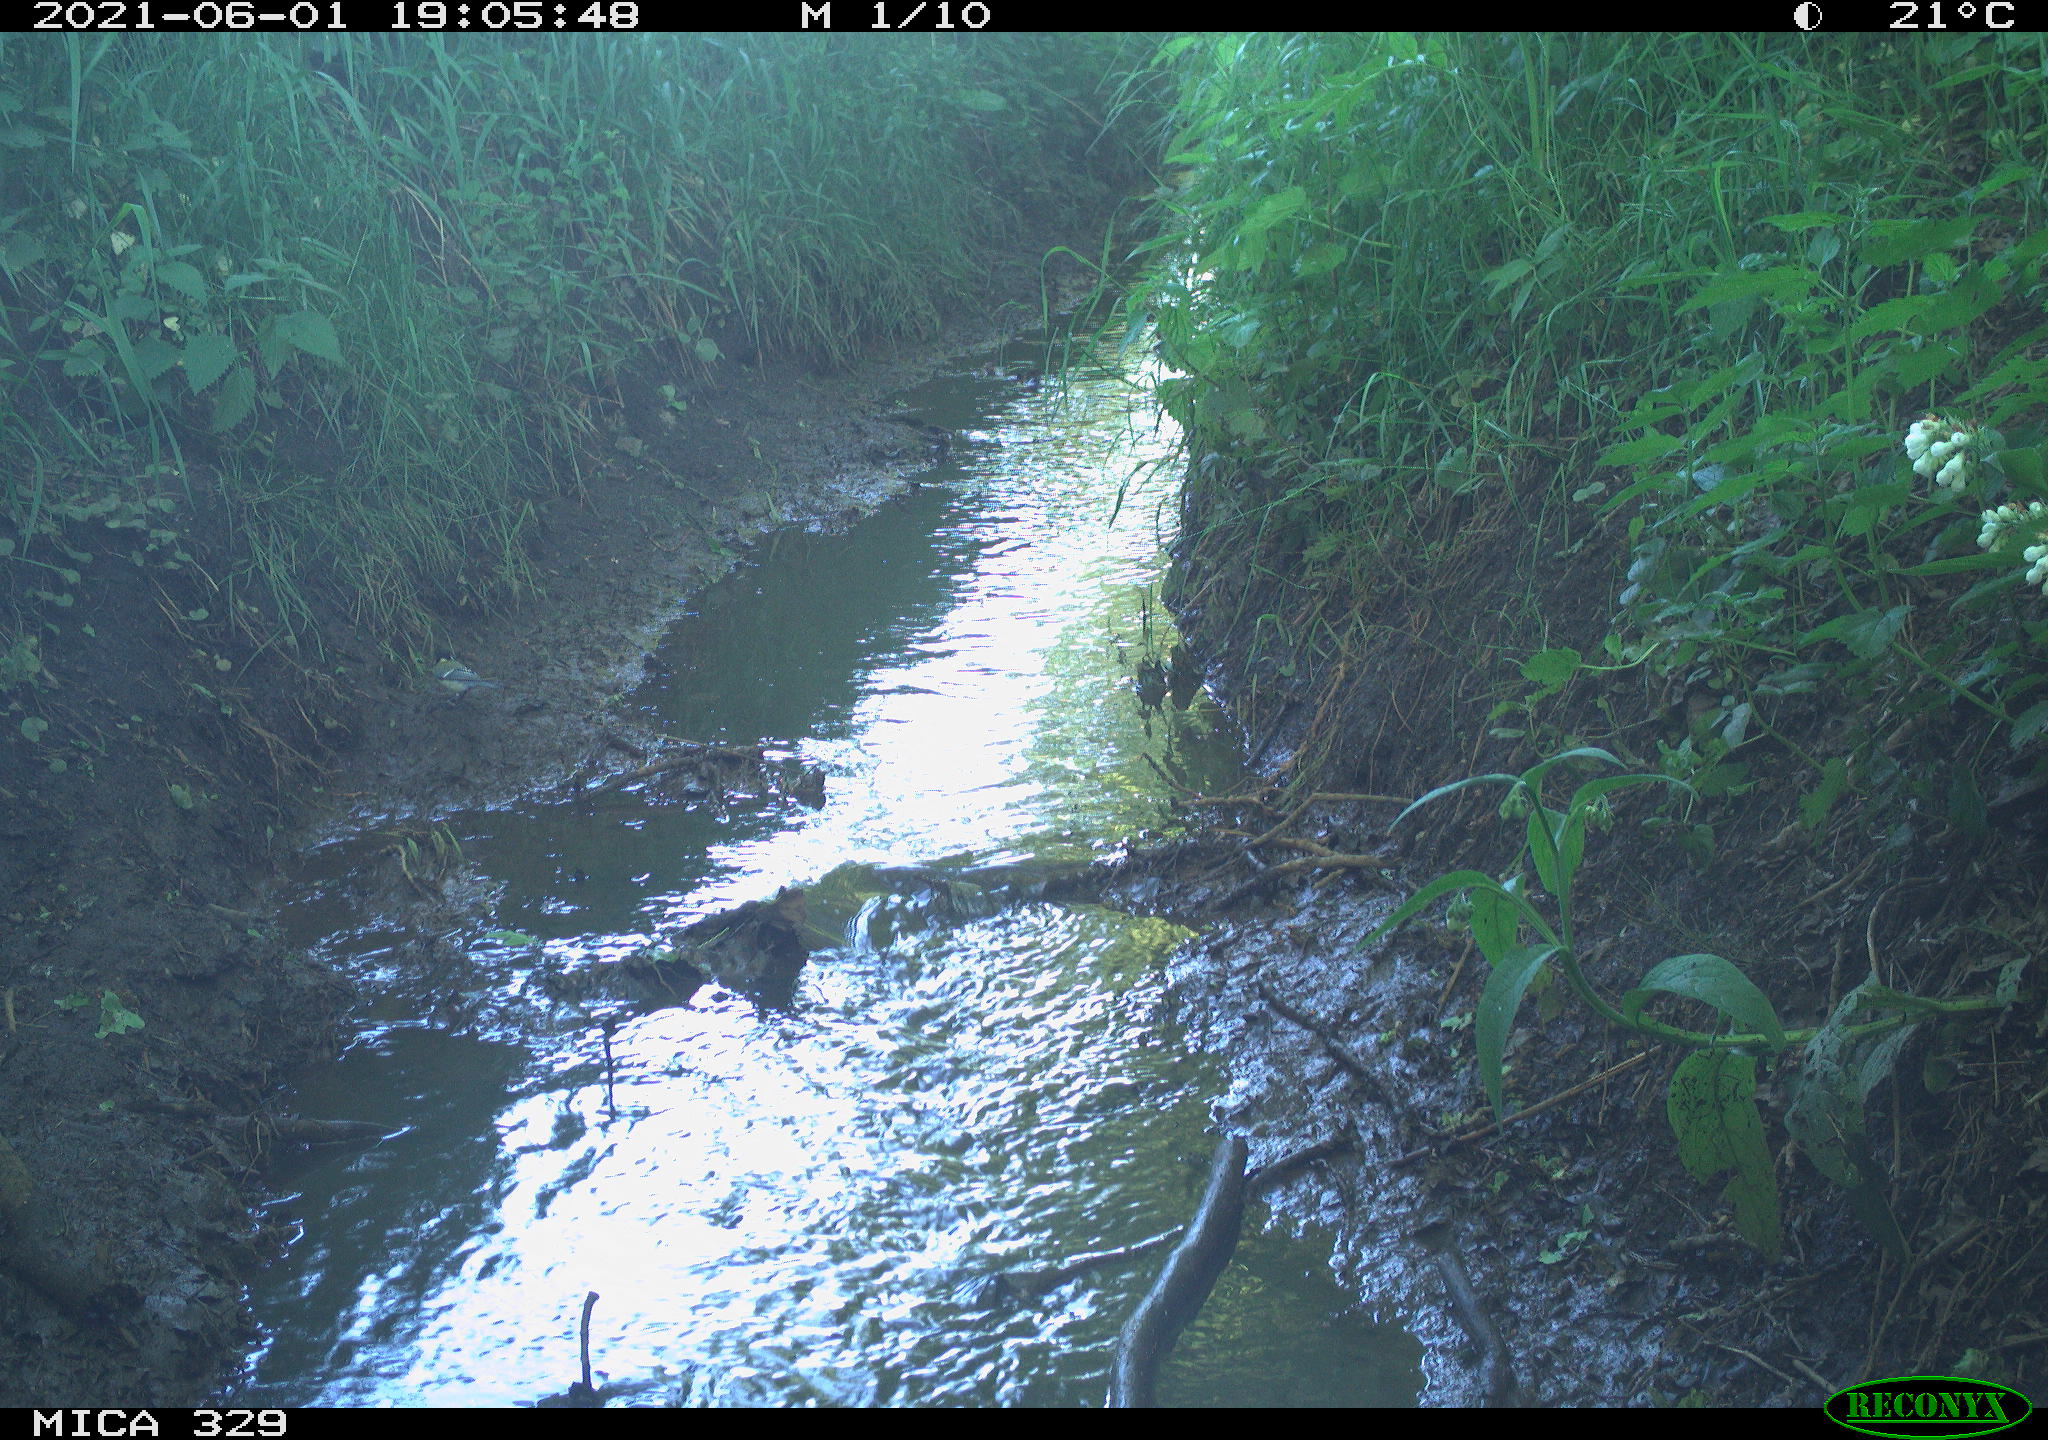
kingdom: Animalia
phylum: Chordata
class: Aves
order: Passeriformes
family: Paridae
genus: Parus
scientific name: Parus major
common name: Great tit
